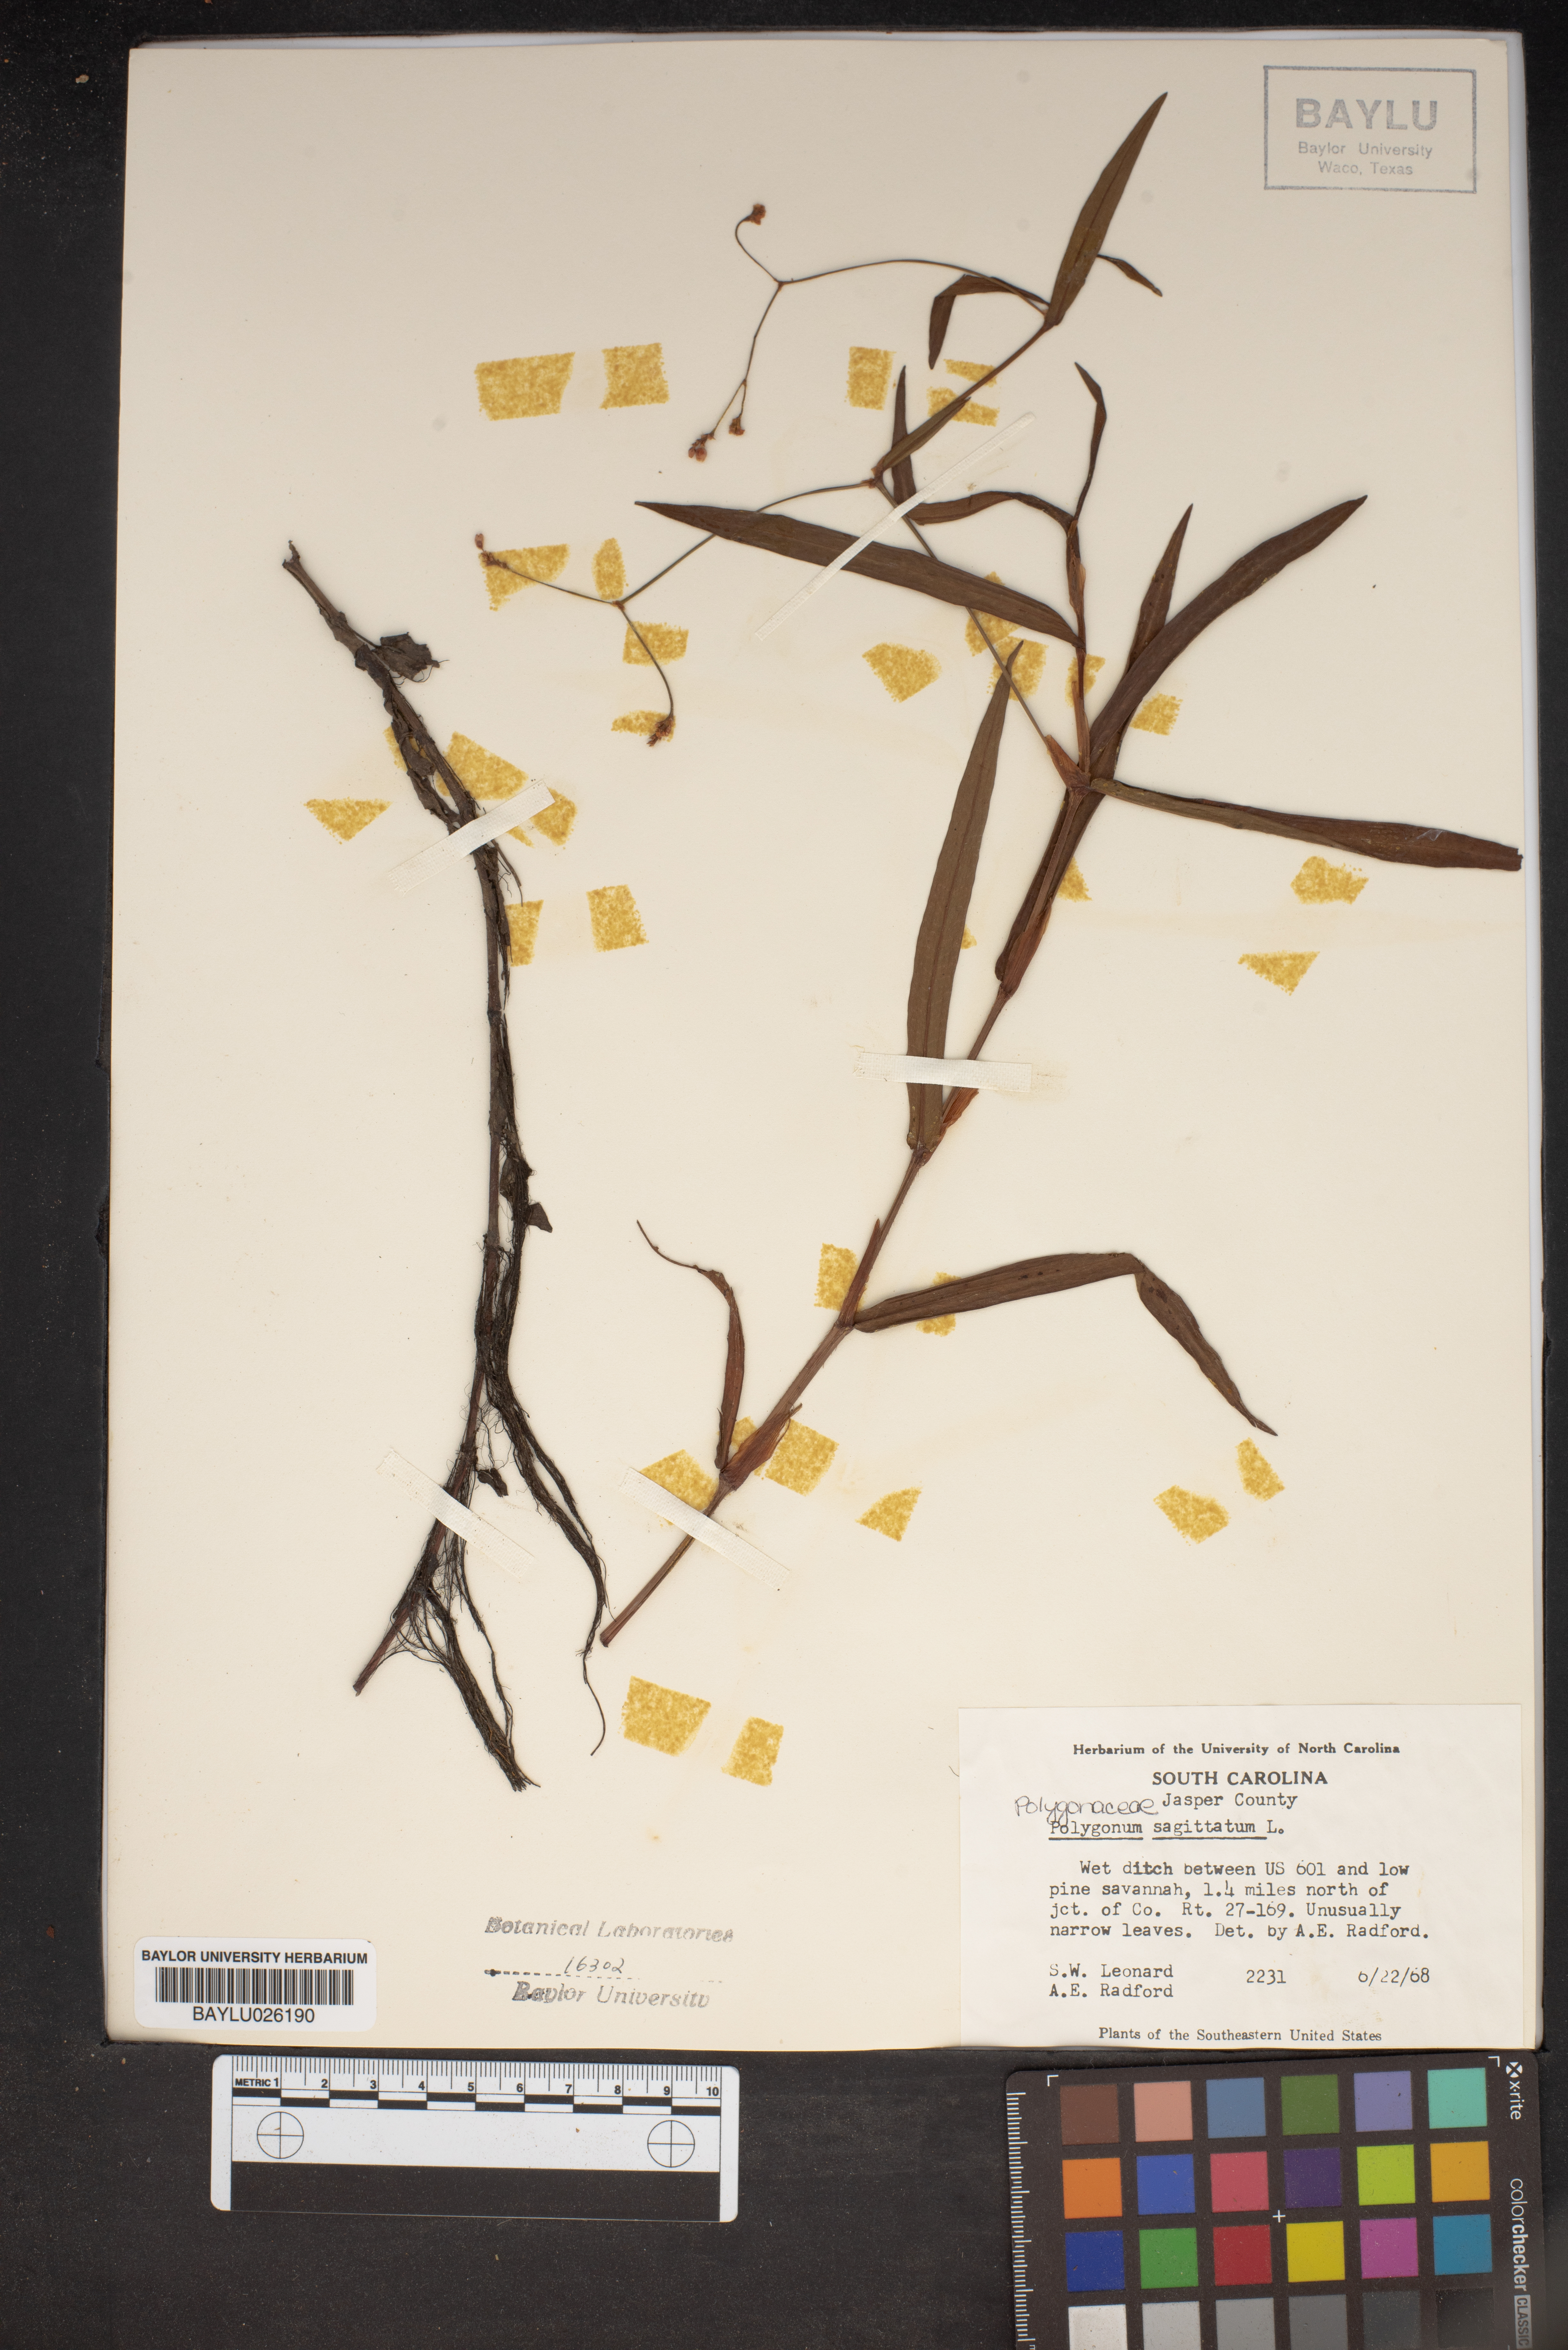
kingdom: Plantae
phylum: Tracheophyta
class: Magnoliopsida
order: Caryophyllales
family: Polygonaceae
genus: Persicaria
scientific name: Persicaria sagittata
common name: American tearthumb
